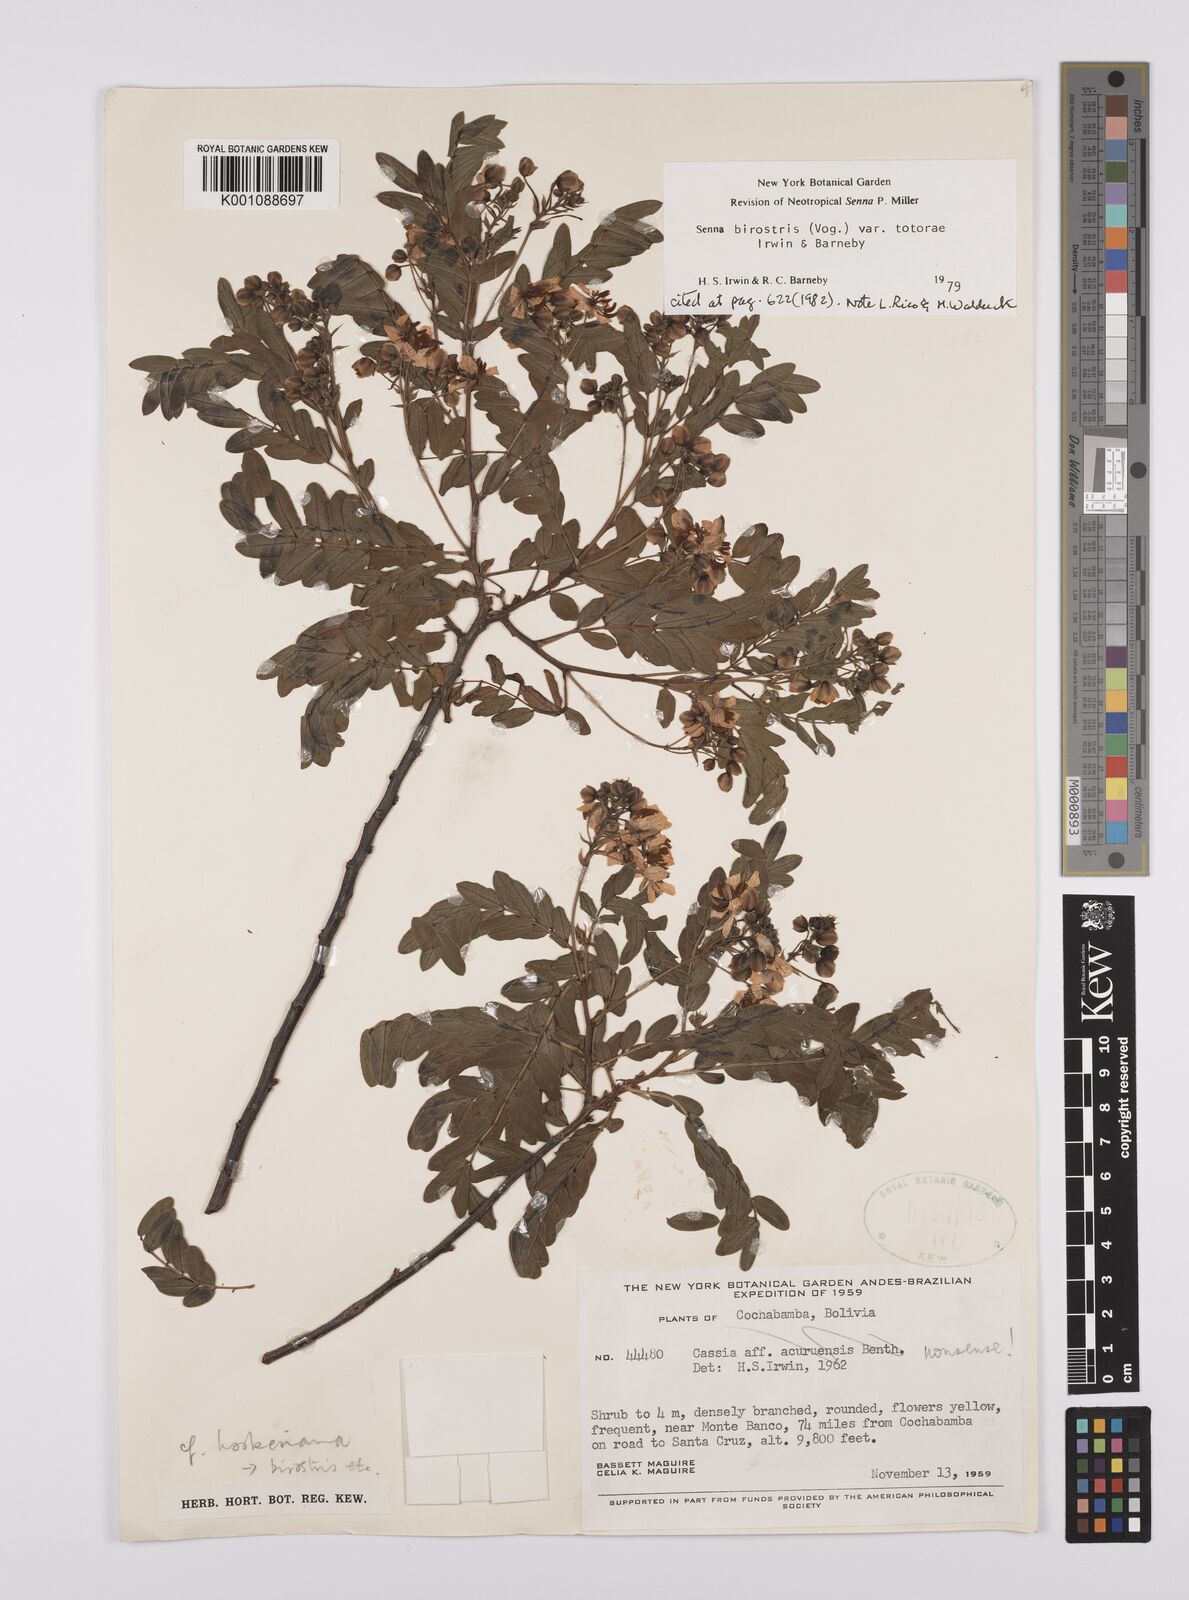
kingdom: Plantae
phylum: Tracheophyta
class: Magnoliopsida
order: Fabales
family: Fabaceae
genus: Senna
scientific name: Senna birostris
